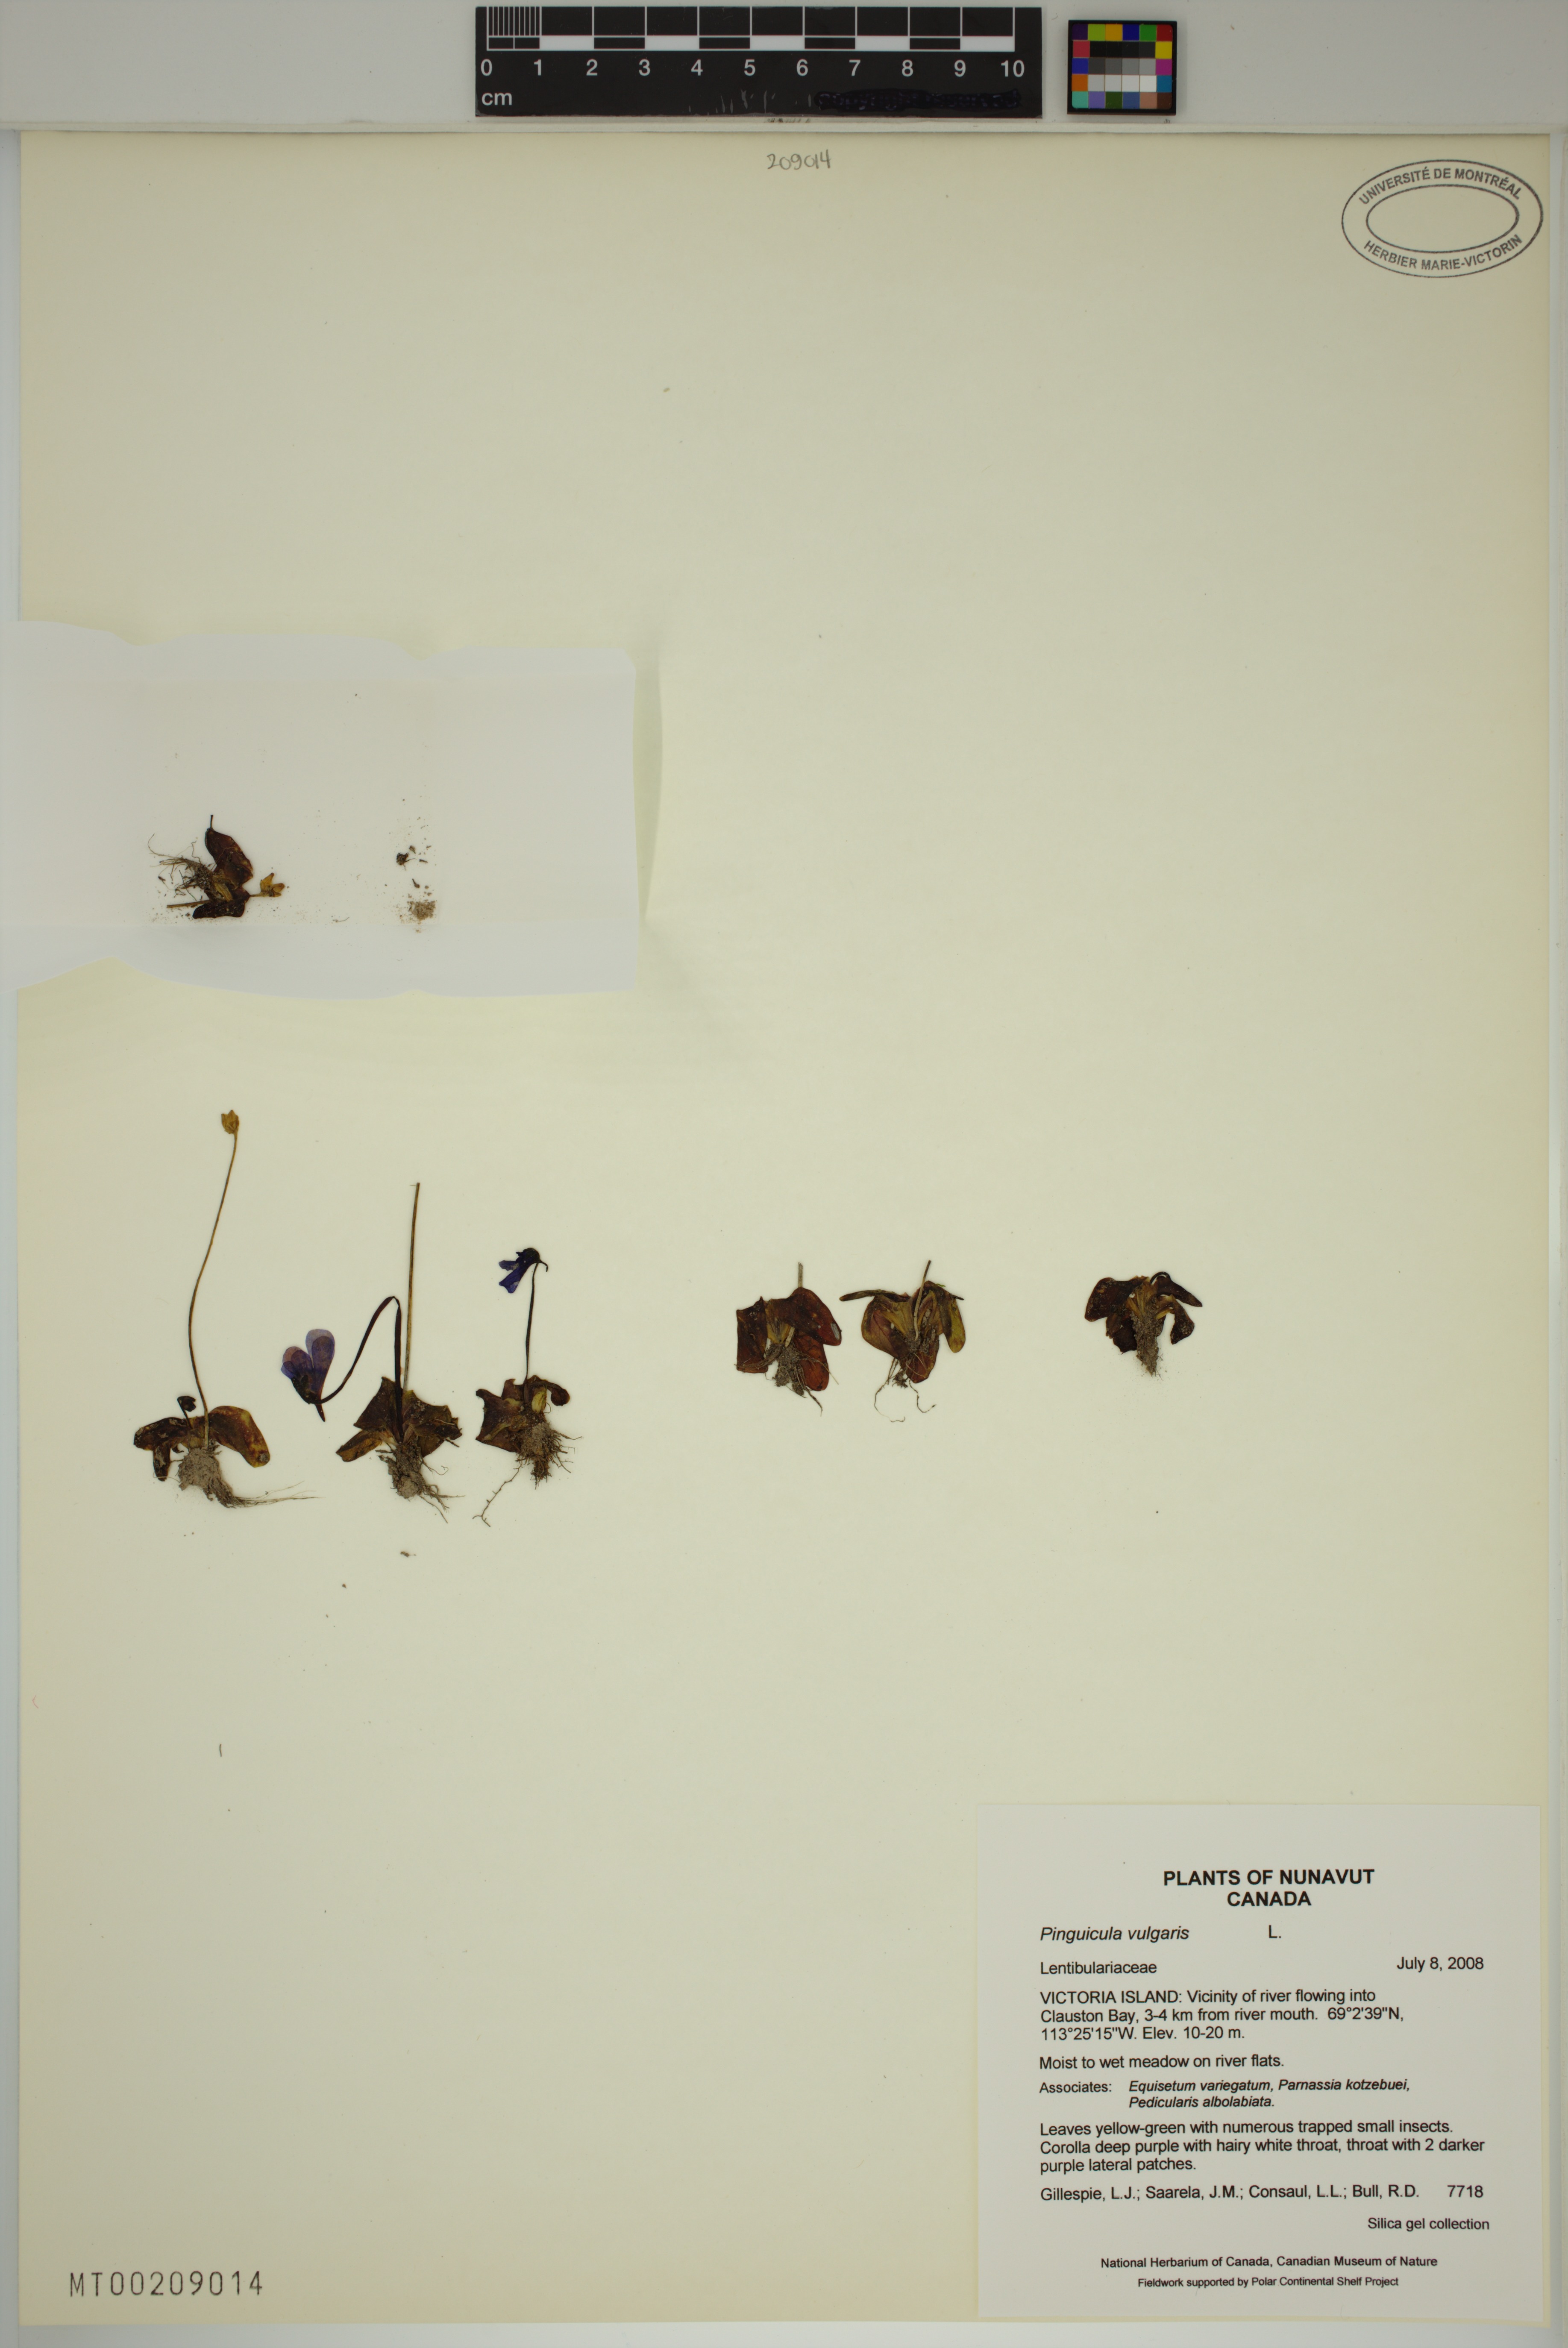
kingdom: Plantae
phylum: Tracheophyta
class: Magnoliopsida
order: Lamiales
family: Lentibulariaceae
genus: Pinguicula
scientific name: Pinguicula vulgaris
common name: Common butterwort
